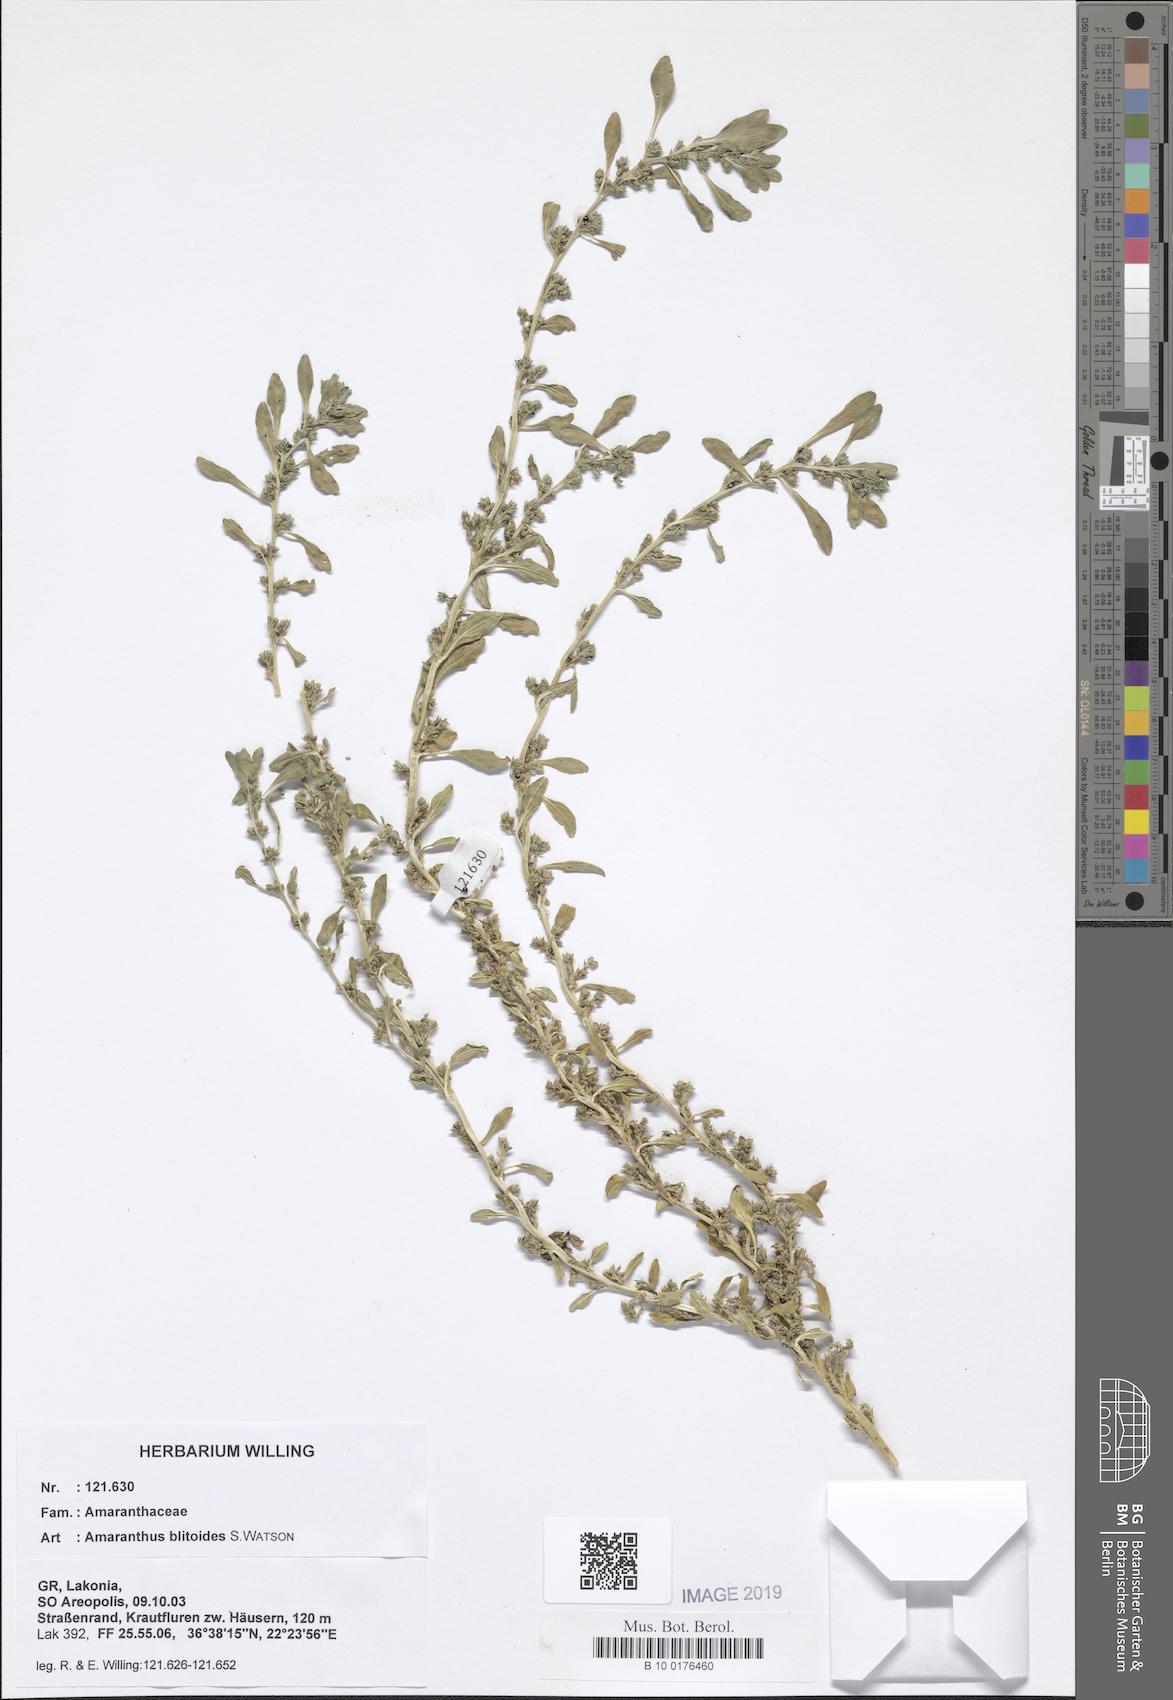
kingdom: Plantae
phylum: Tracheophyta
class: Magnoliopsida
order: Caryophyllales
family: Amaranthaceae
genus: Amaranthus
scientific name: Amaranthus blitoides
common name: Prostrate pigweed
